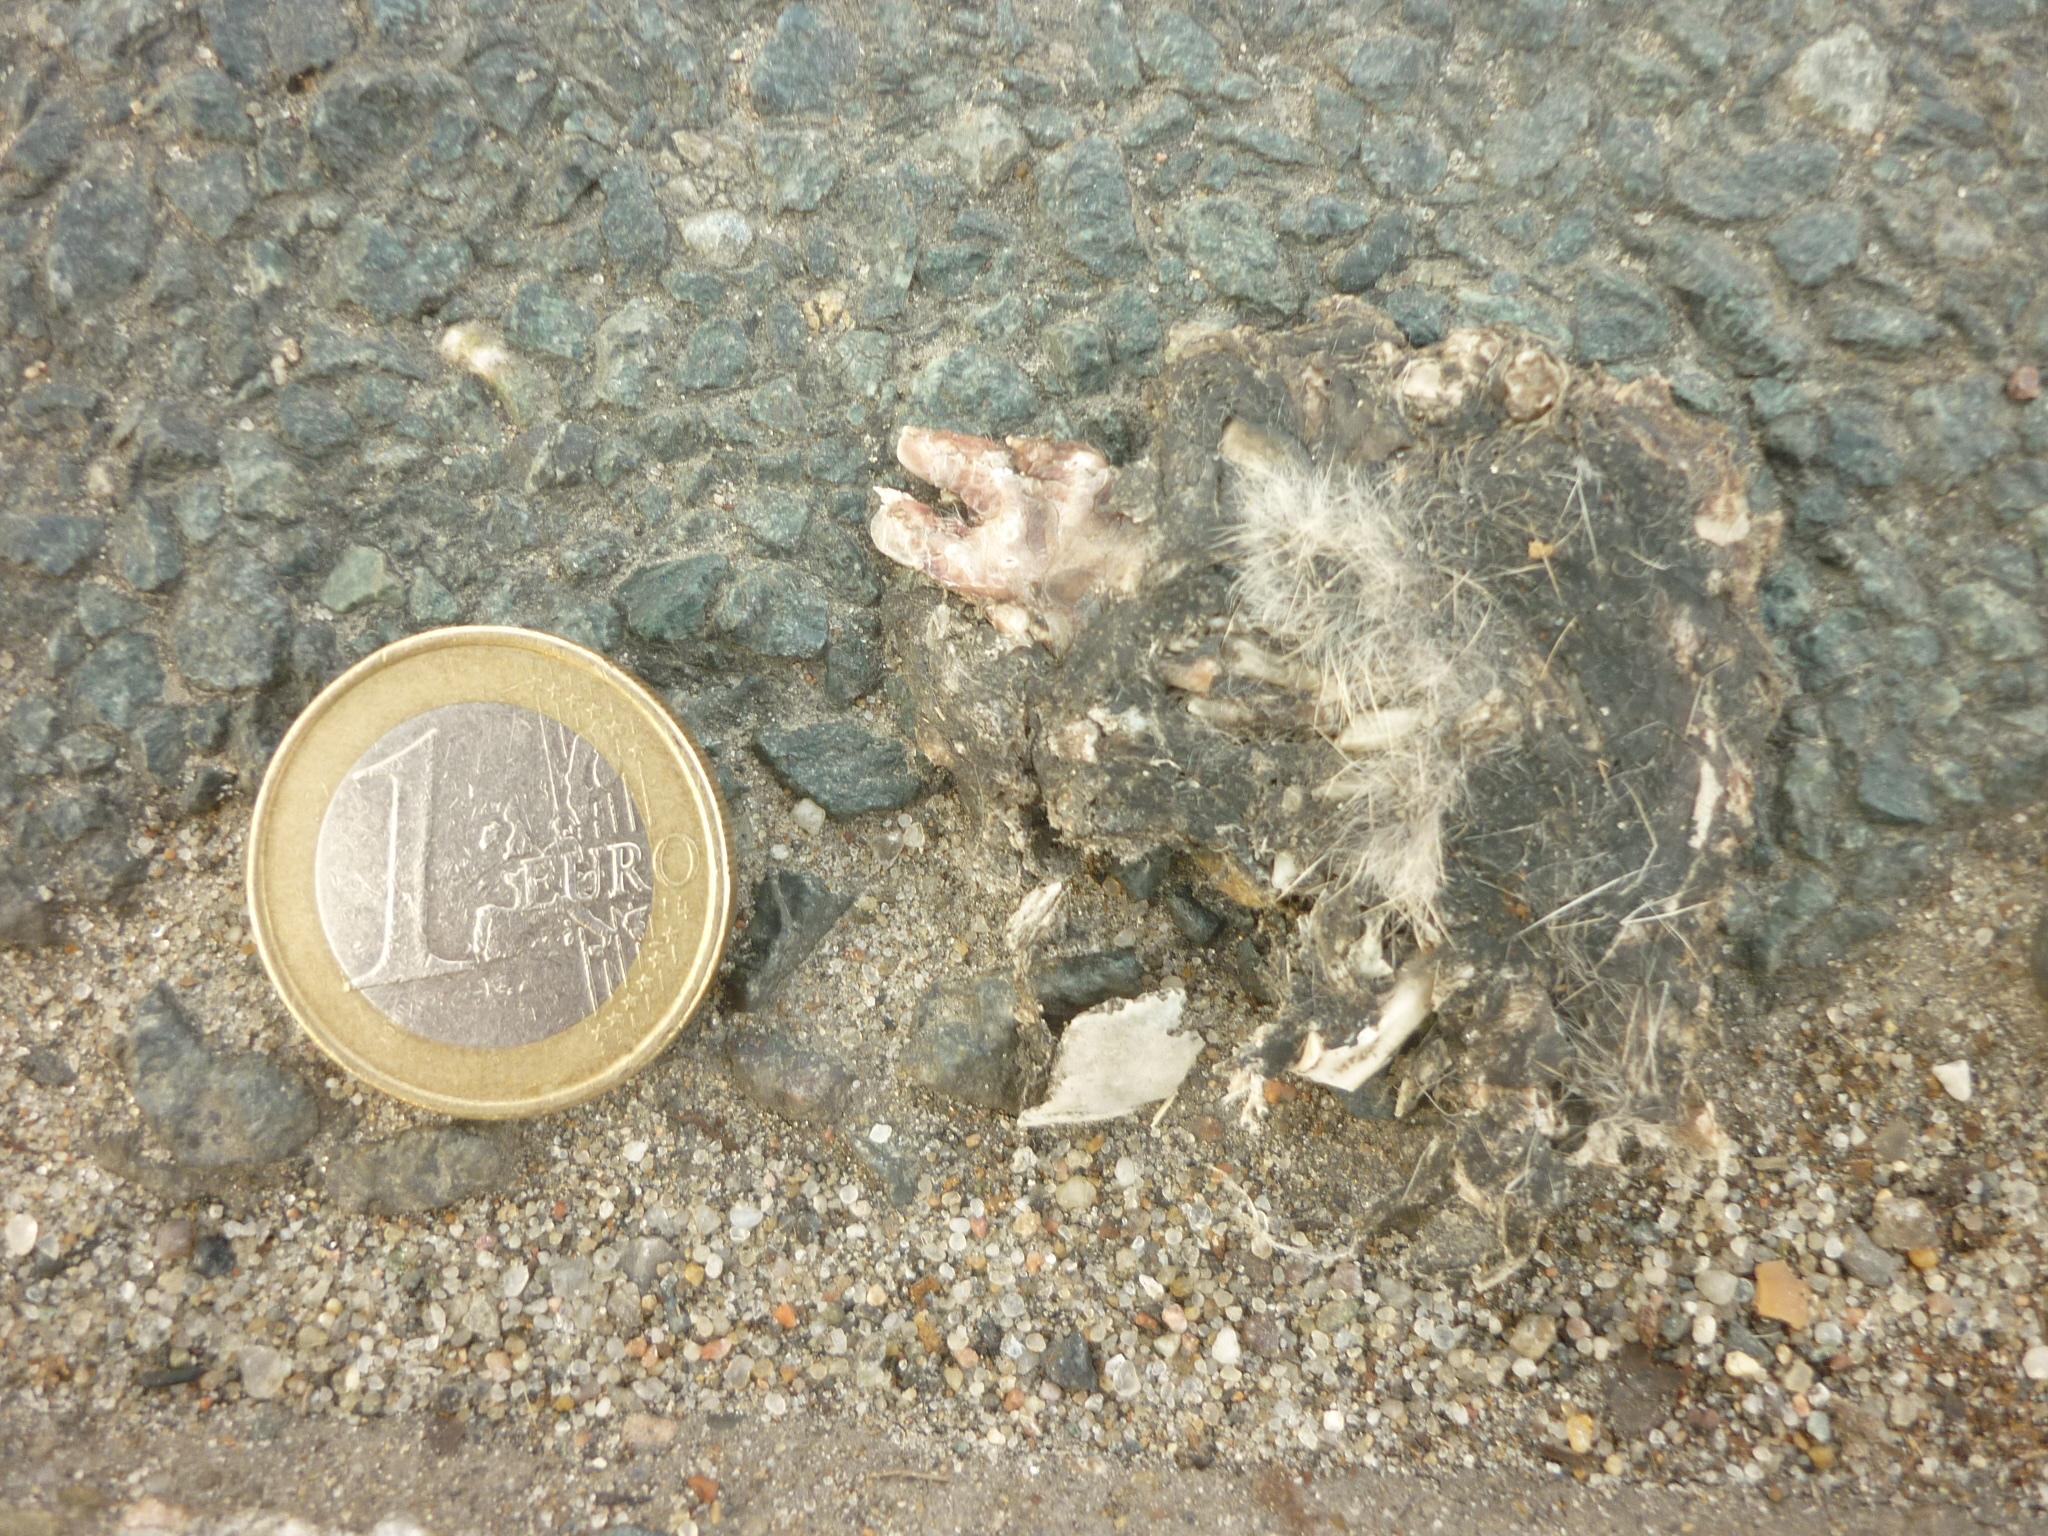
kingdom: Animalia
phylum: Chordata
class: Mammalia
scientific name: Mammalia
